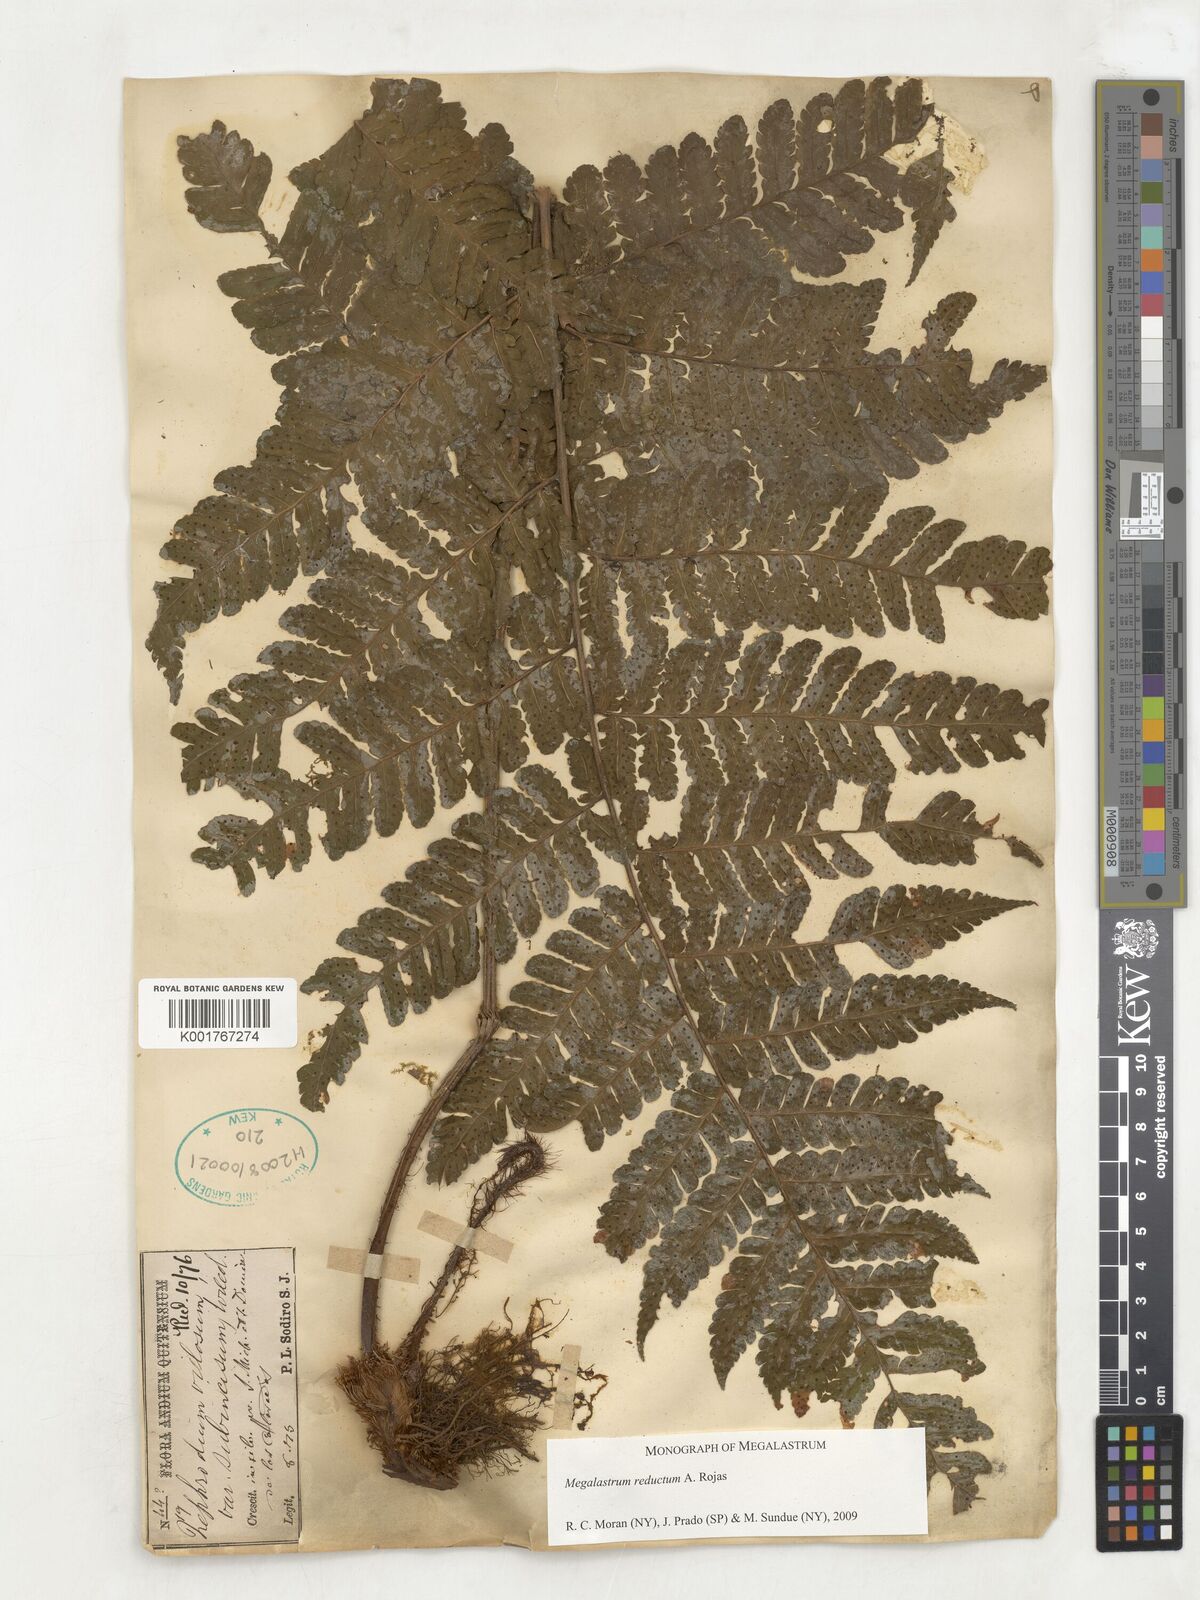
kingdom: Plantae
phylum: Tracheophyta
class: Polypodiopsida
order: Polypodiales
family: Dryopteridaceae
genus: Megalastrum
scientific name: Megalastrum reductum
